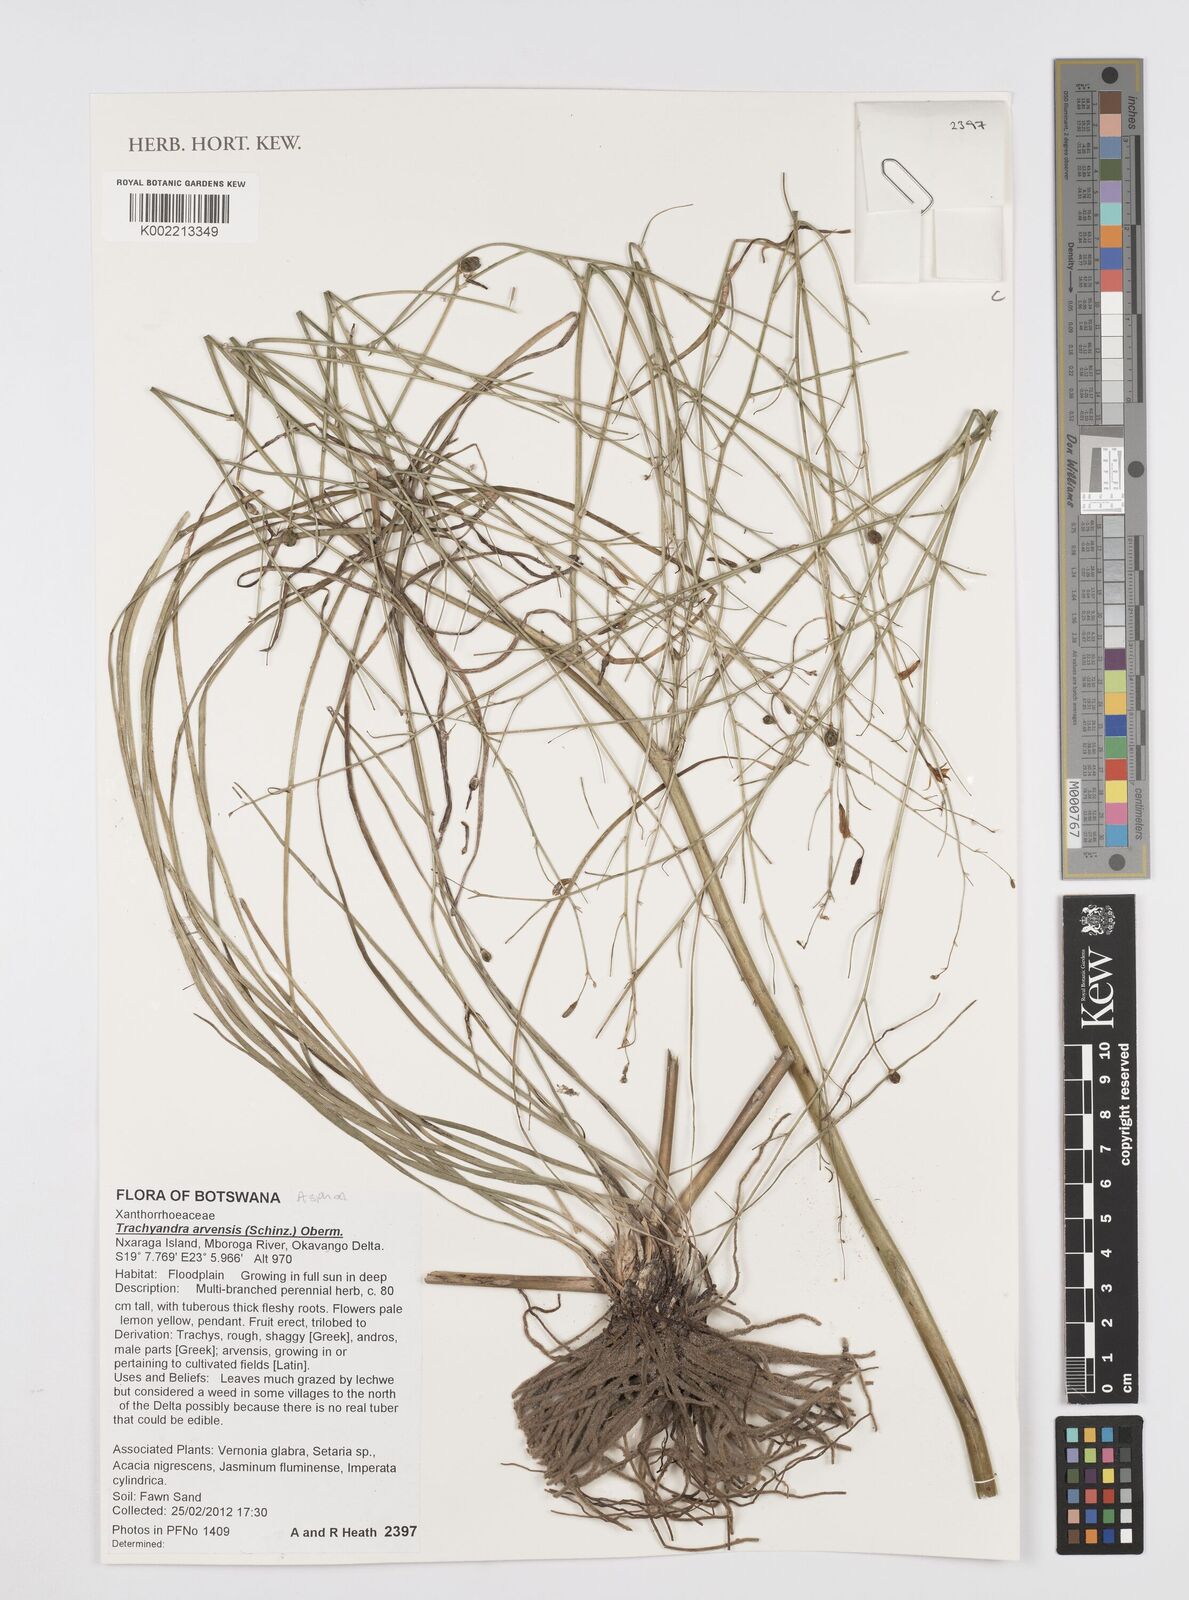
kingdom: Plantae
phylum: Tracheophyta
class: Liliopsida
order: Asparagales
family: Asphodelaceae
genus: Trachyandra
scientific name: Trachyandra arvensis
